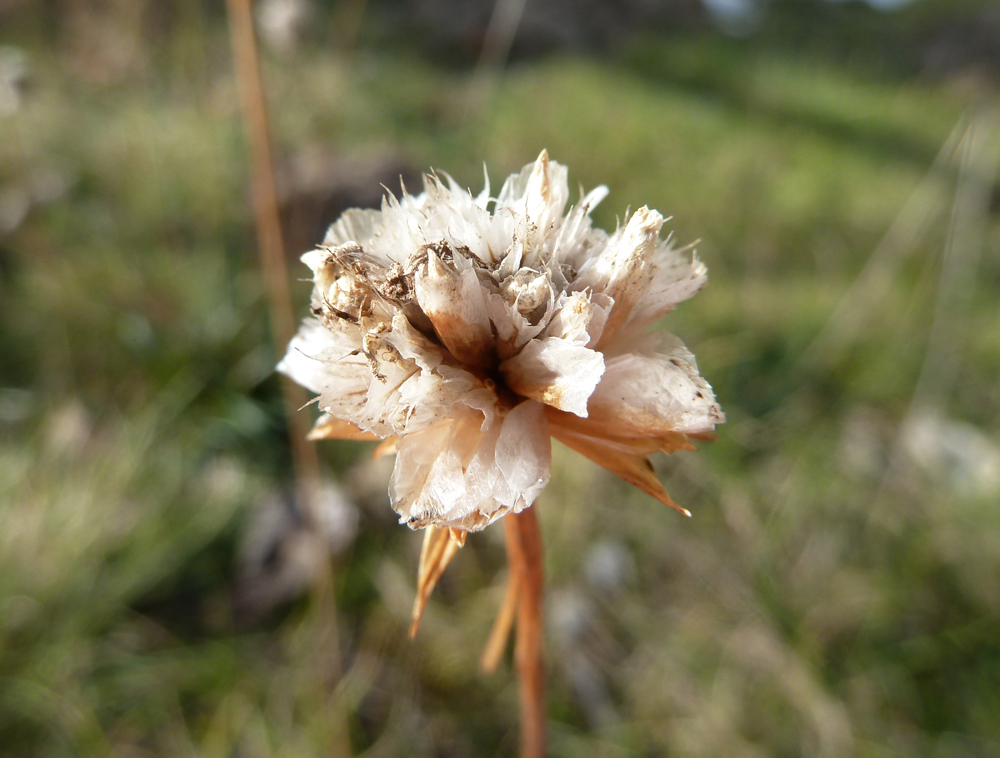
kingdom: Plantae
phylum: Tracheophyta
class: Magnoliopsida
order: Caryophyllales
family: Plumbaginaceae
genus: Armeria
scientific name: Armeria maritima
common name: Thrift
